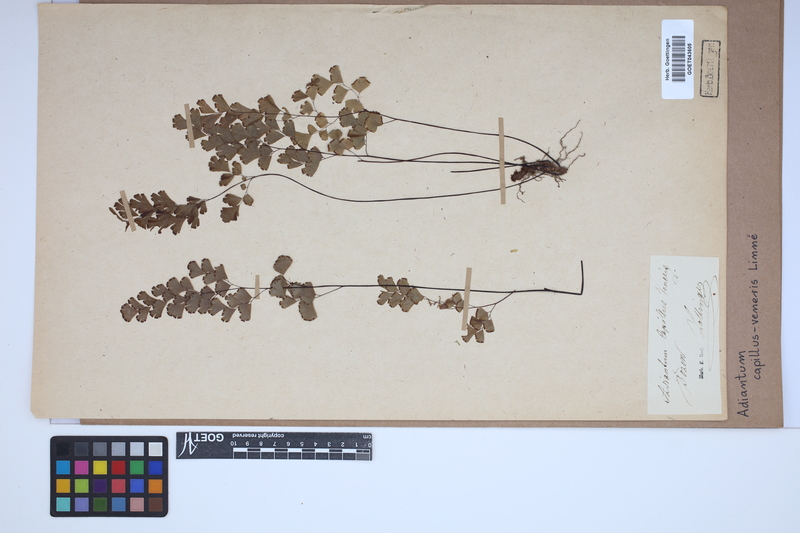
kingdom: Plantae
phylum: Tracheophyta
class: Polypodiopsida
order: Polypodiales
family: Pteridaceae
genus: Adiantum
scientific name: Adiantum capillus-veneris
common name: Maidenhair fern
